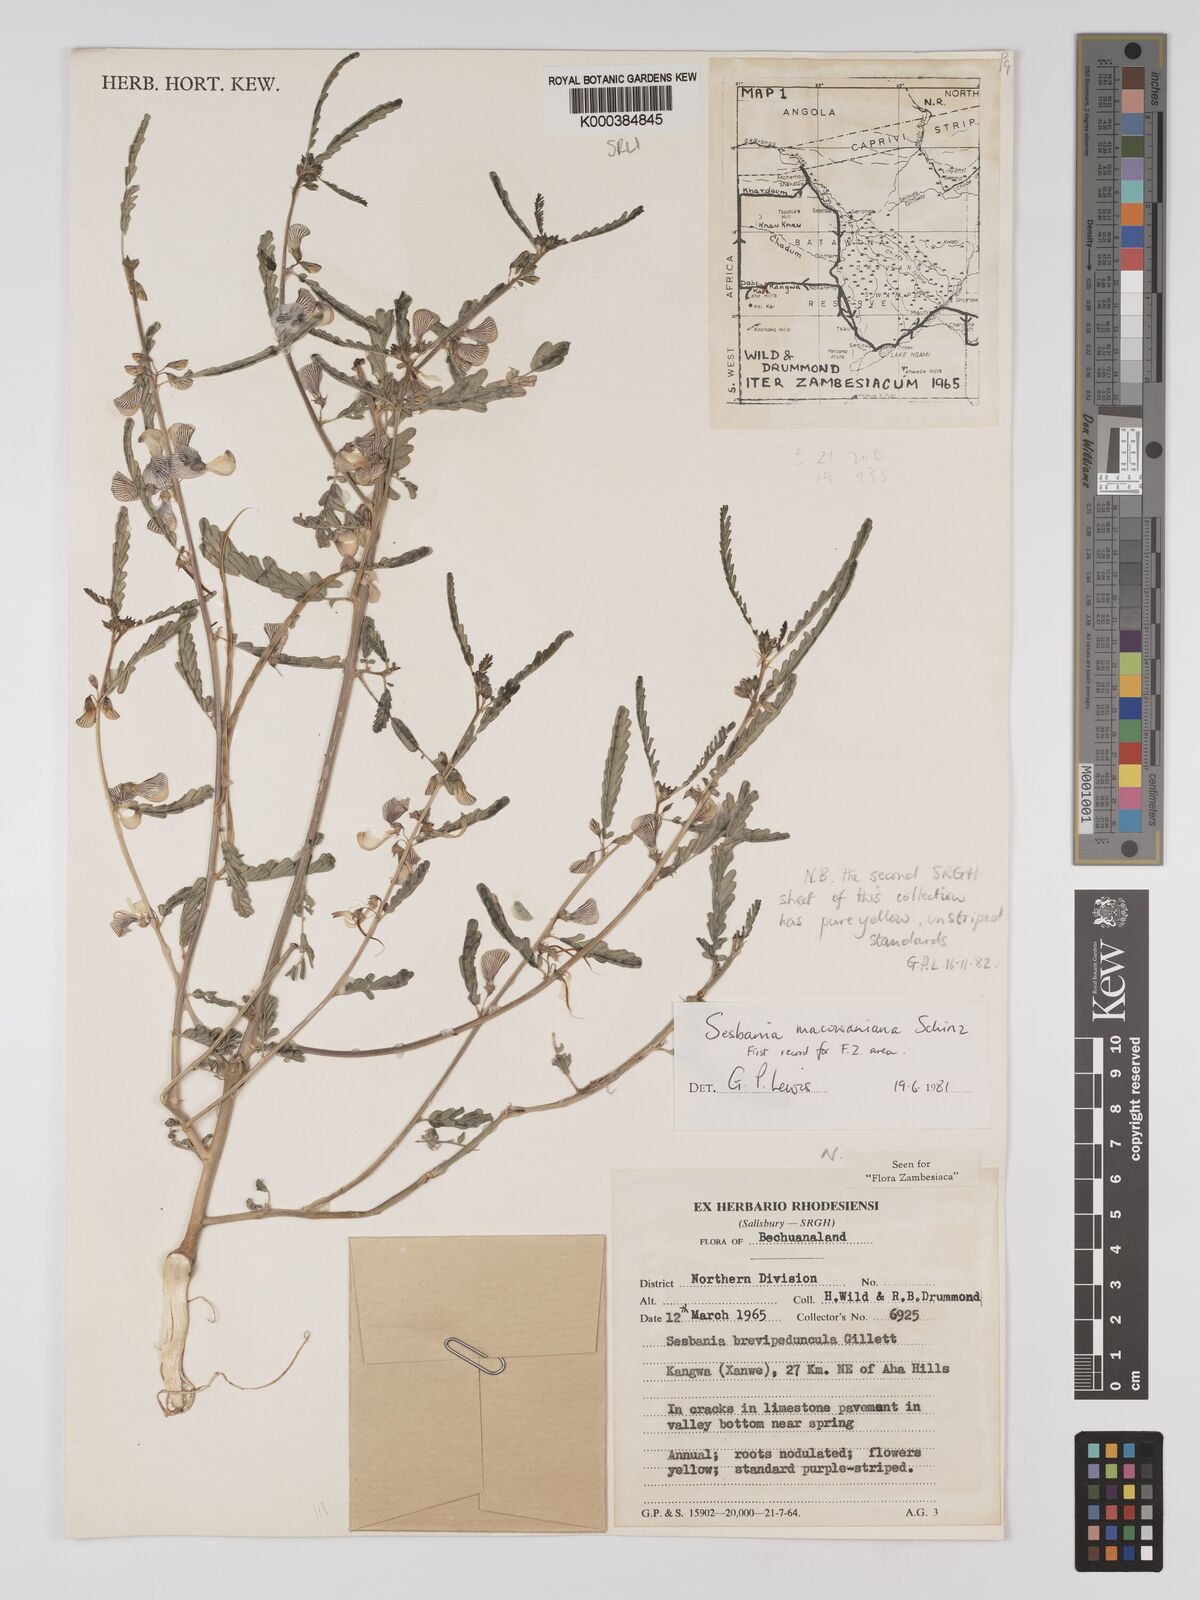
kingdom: Plantae
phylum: Tracheophyta
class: Magnoliopsida
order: Fabales
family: Fabaceae
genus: Sesbania
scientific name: Sesbania macowaniana
